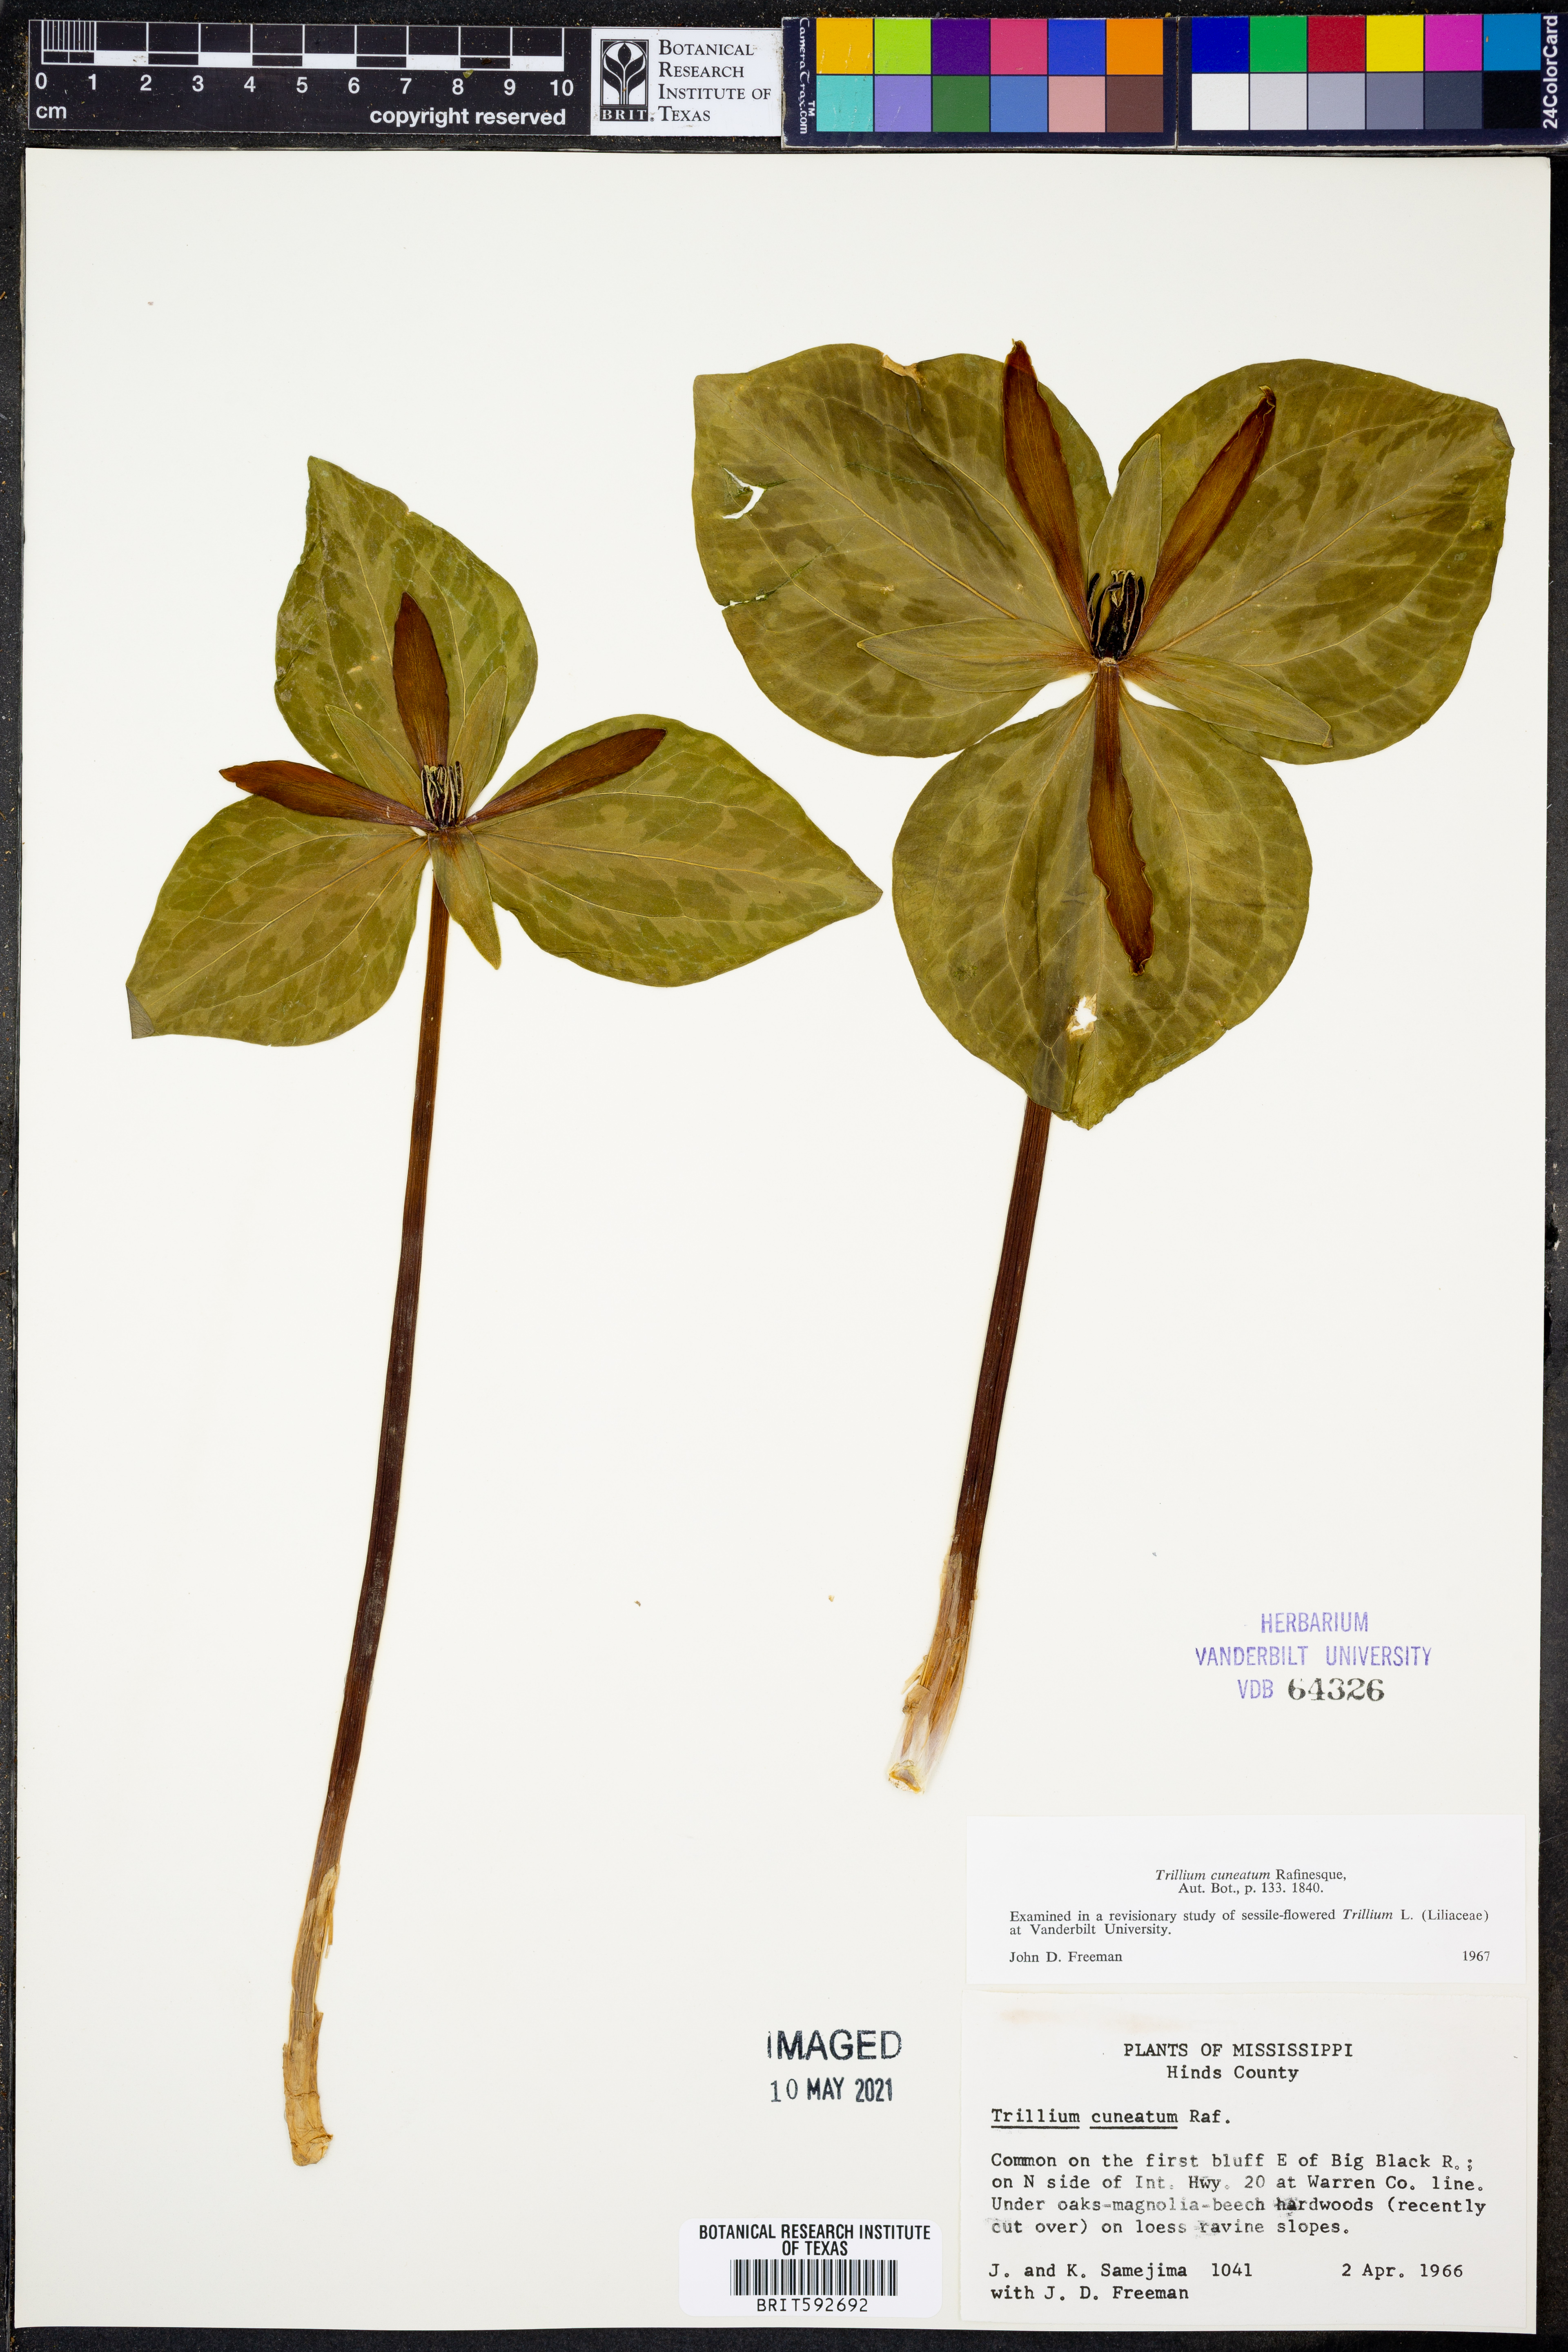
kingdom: Plantae
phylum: Tracheophyta
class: Liliopsida
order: Liliales
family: Melanthiaceae
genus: Trillium
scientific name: Trillium cuneatum
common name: Cuneate trillium
